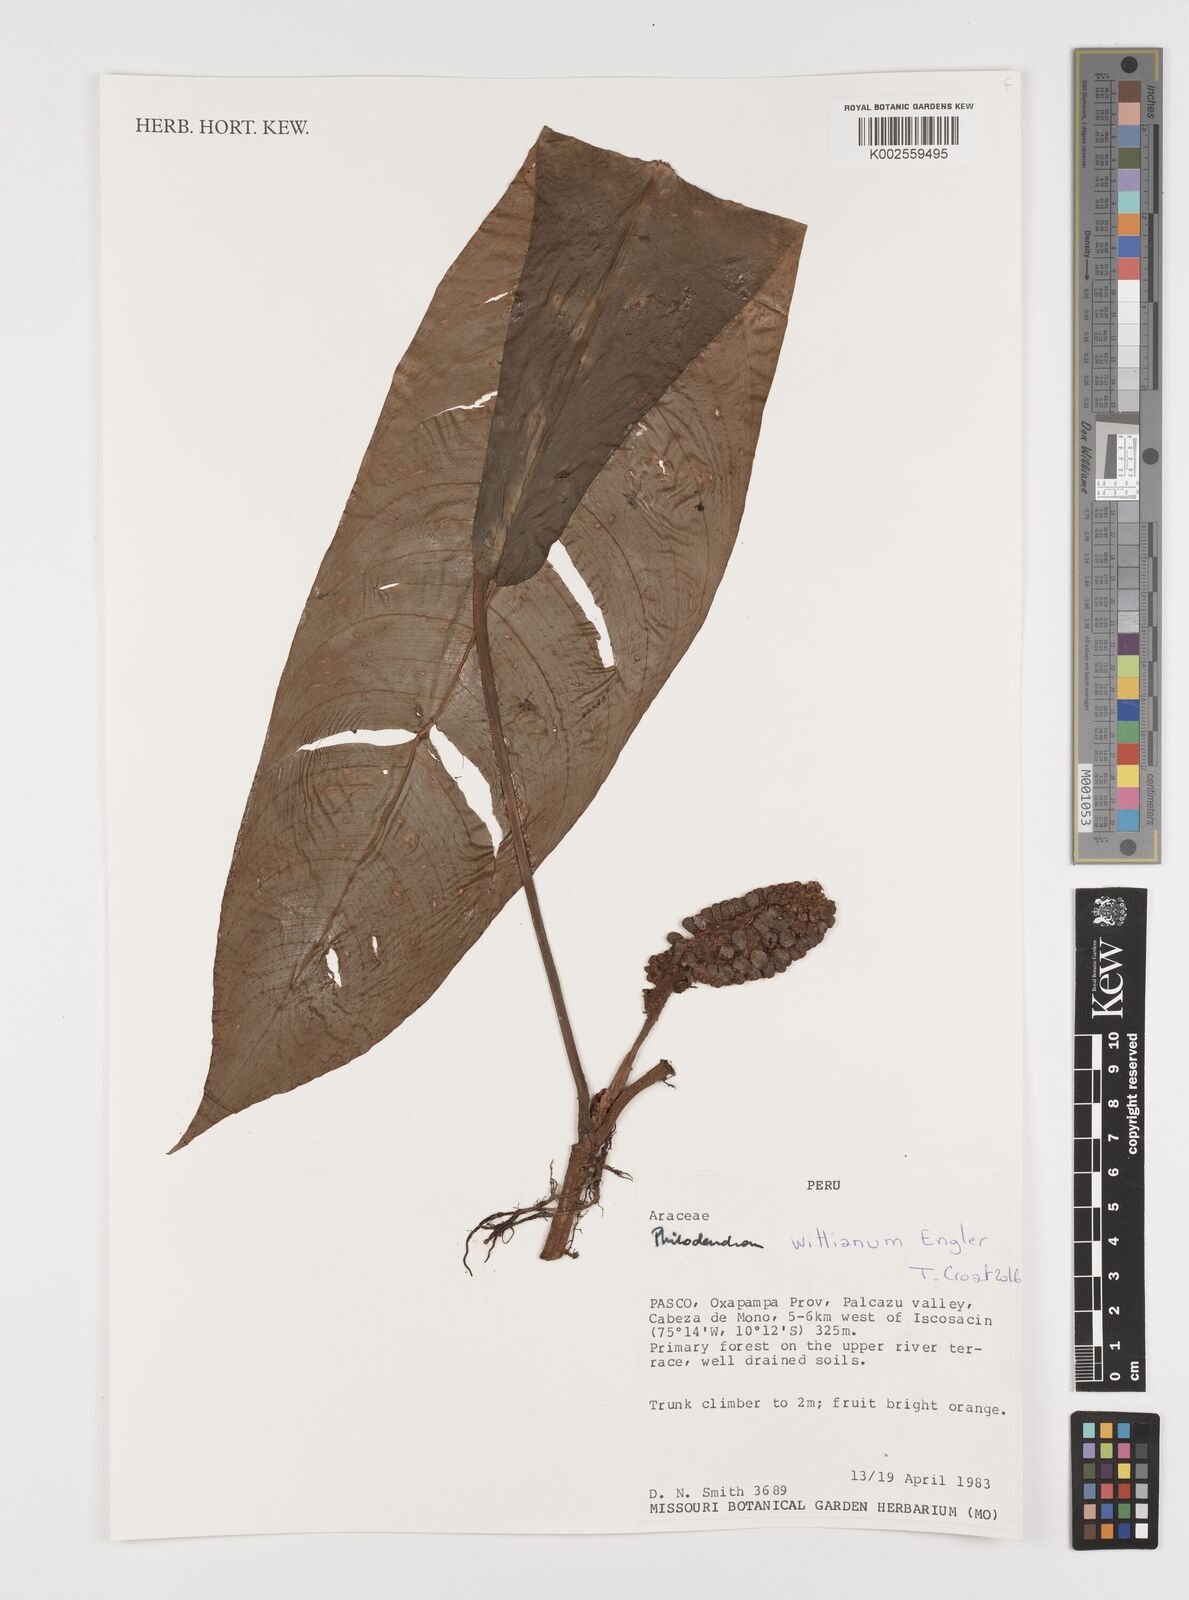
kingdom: Plantae
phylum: Tracheophyta
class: Liliopsida
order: Alismatales
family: Araceae
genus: Philodendron
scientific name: Philodendron wittianum
